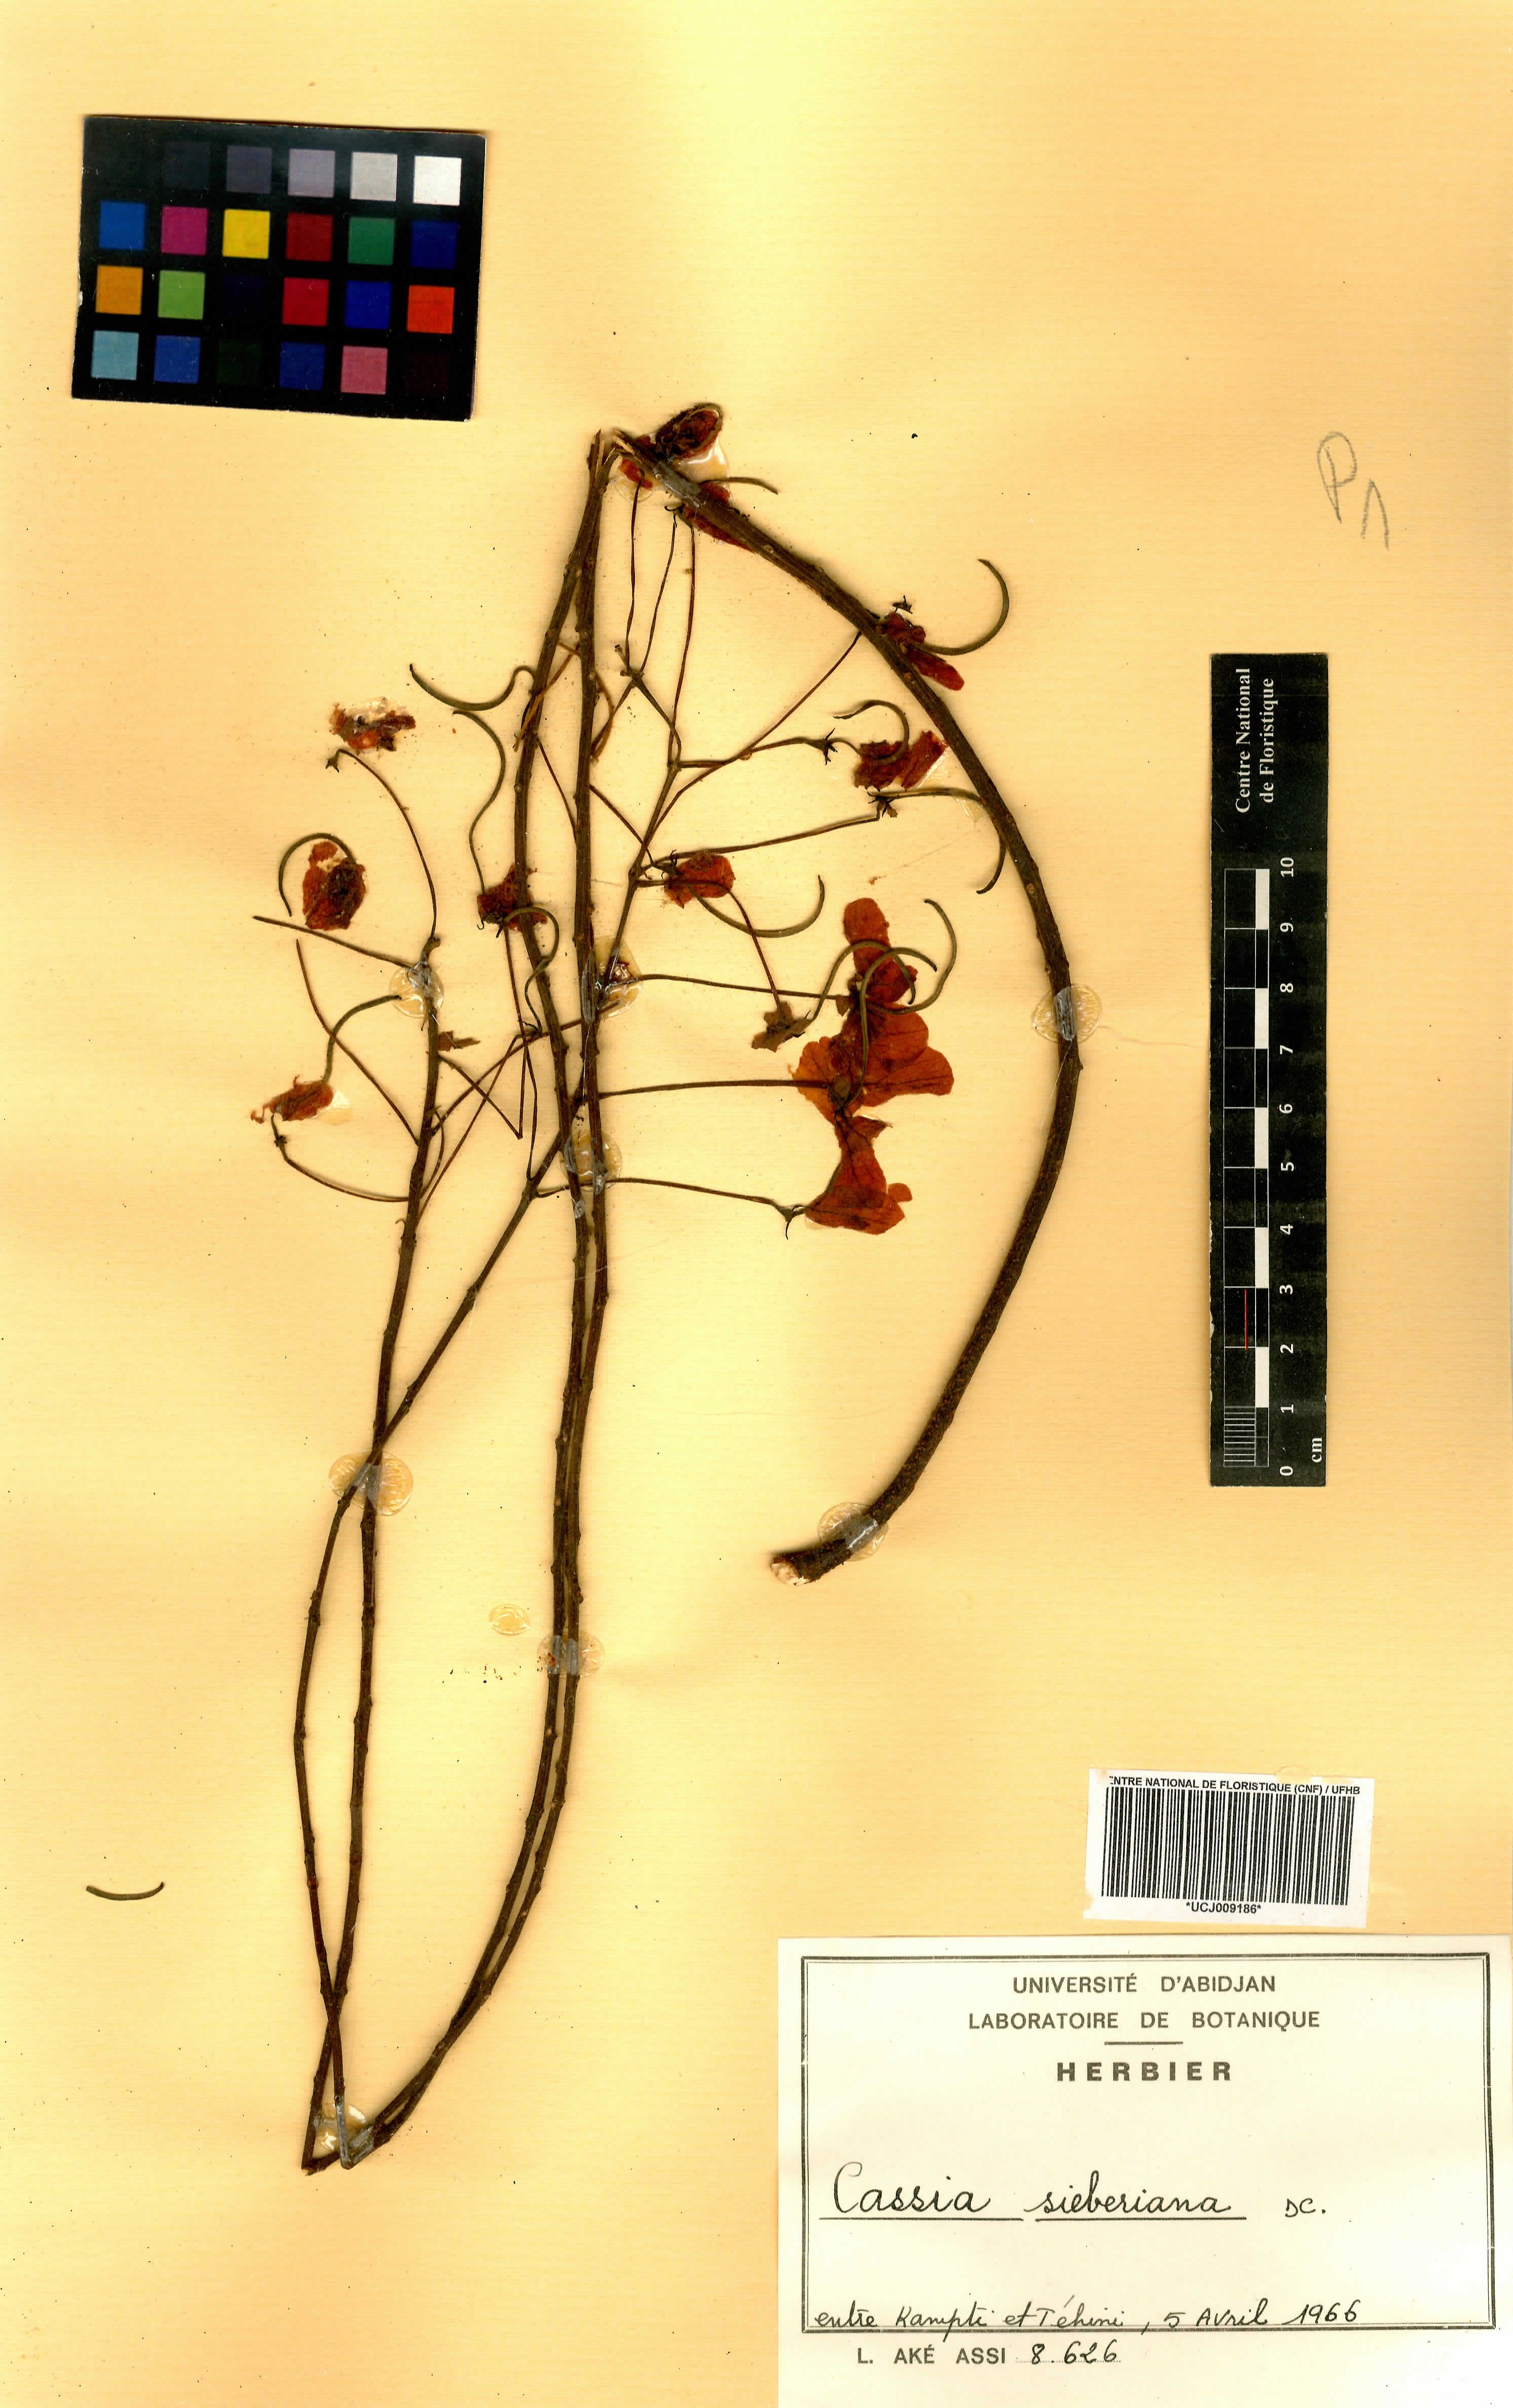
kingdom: Plantae
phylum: Tracheophyta
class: Magnoliopsida
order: Fabales
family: Fabaceae
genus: Cassia
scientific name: Cassia sieberiana
